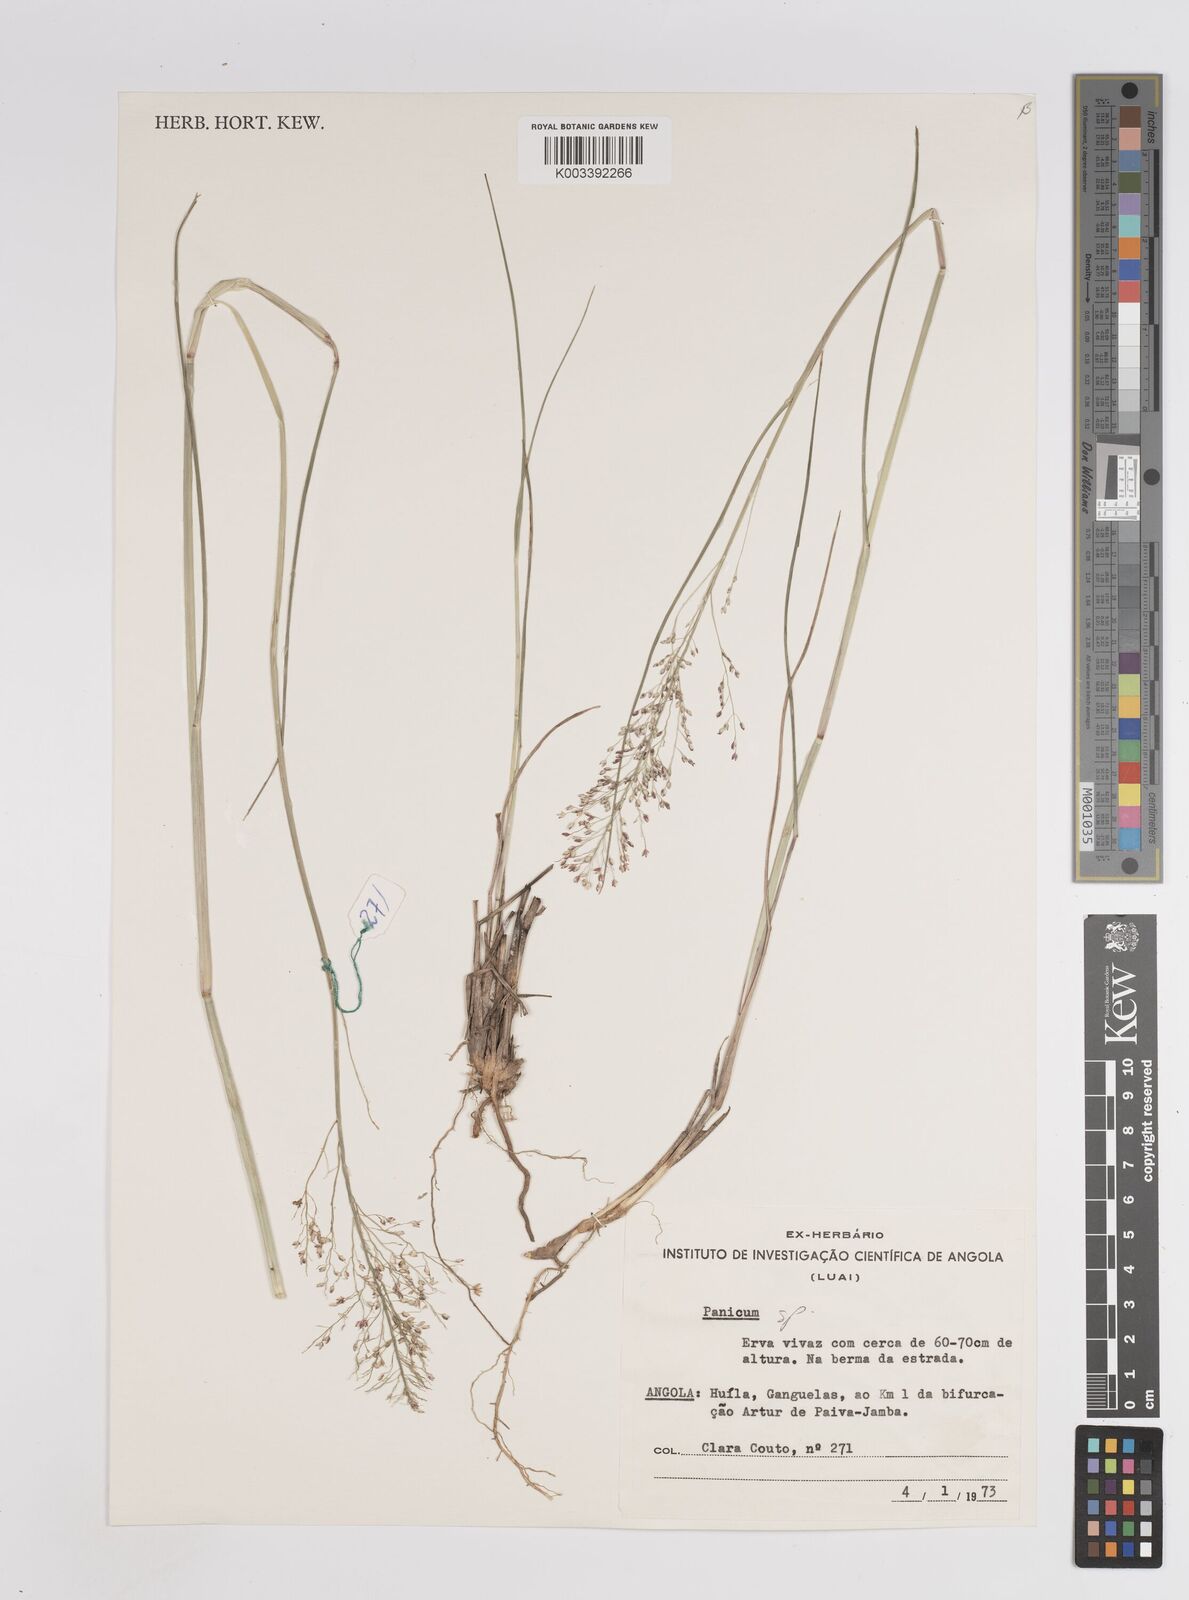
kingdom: Plantae
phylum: Tracheophyta
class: Liliopsida
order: Poales
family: Poaceae
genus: Panicum
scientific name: Panicum dregeanum
